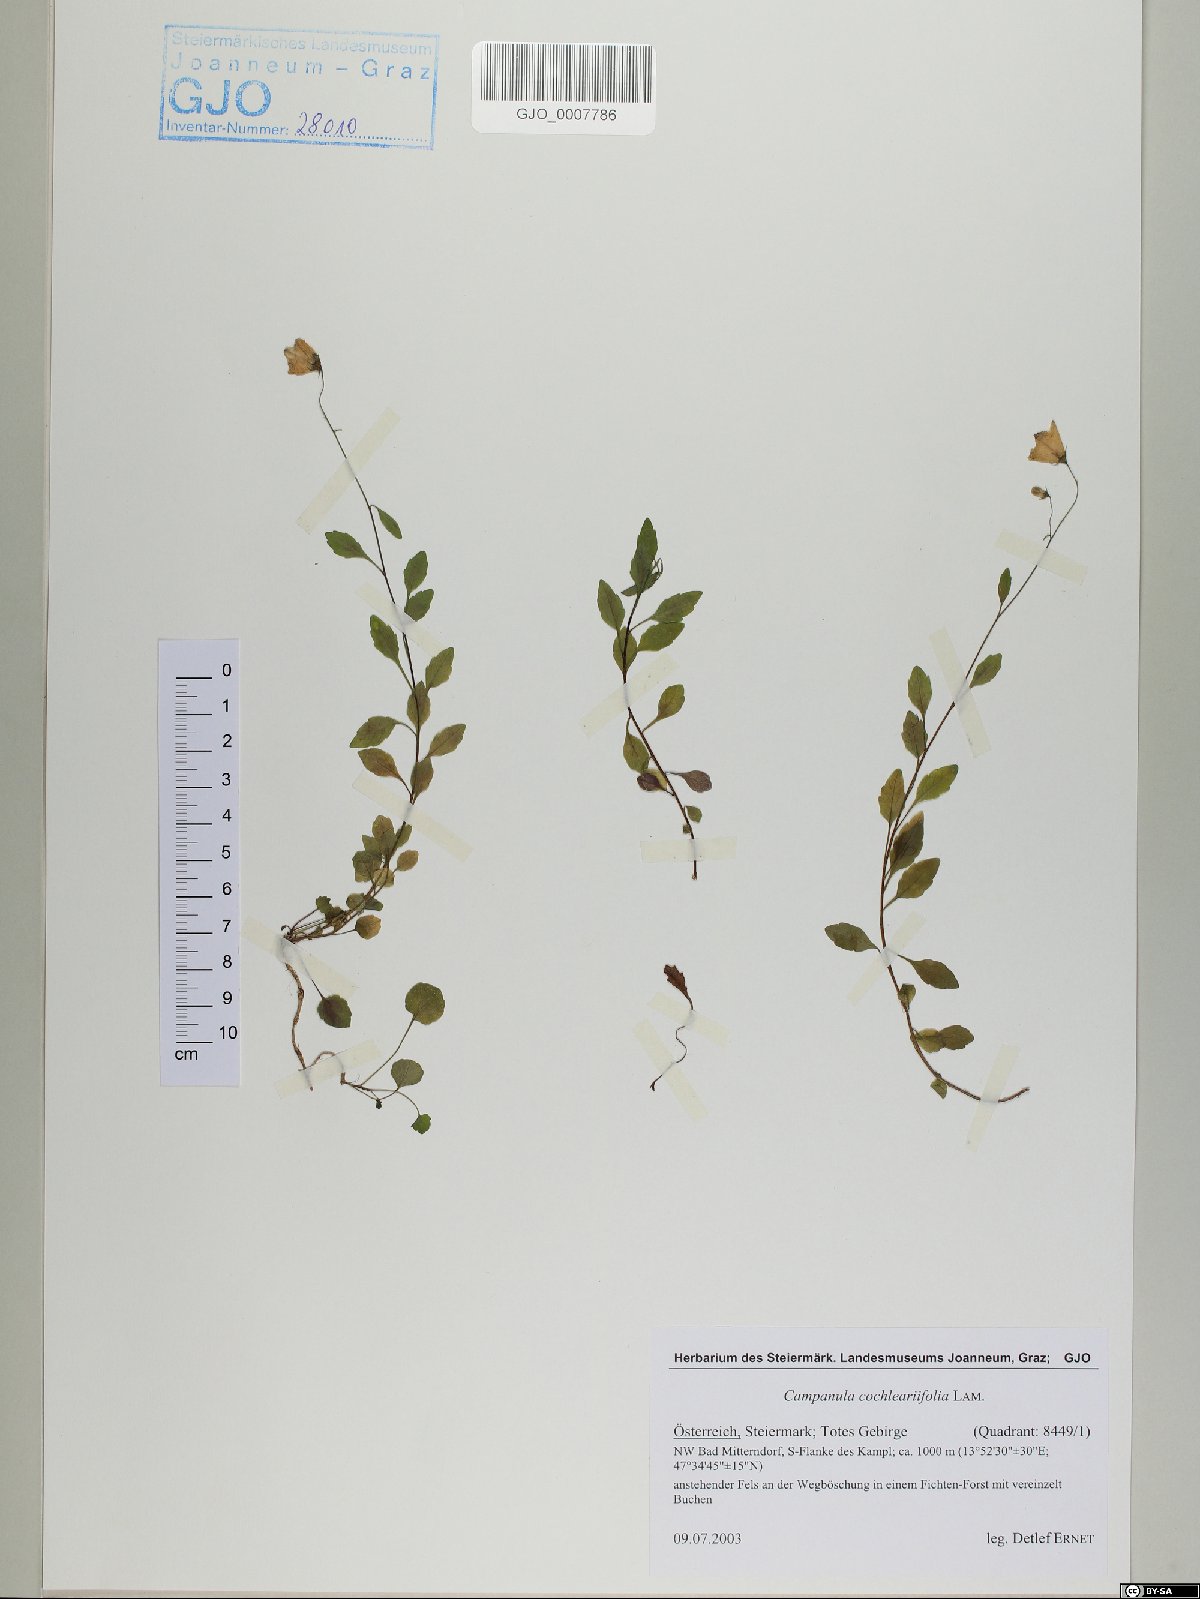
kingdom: Plantae
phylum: Tracheophyta
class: Magnoliopsida
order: Asterales
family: Campanulaceae
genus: Campanula
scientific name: Campanula cochleariifolia
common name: Fairies'-thimbles
